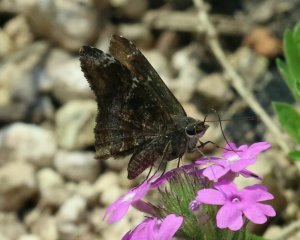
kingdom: Animalia
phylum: Arthropoda
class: Insecta
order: Lepidoptera
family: Hesperiidae
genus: Caicella
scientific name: Caicella calchas
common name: Mimosa Skipper
